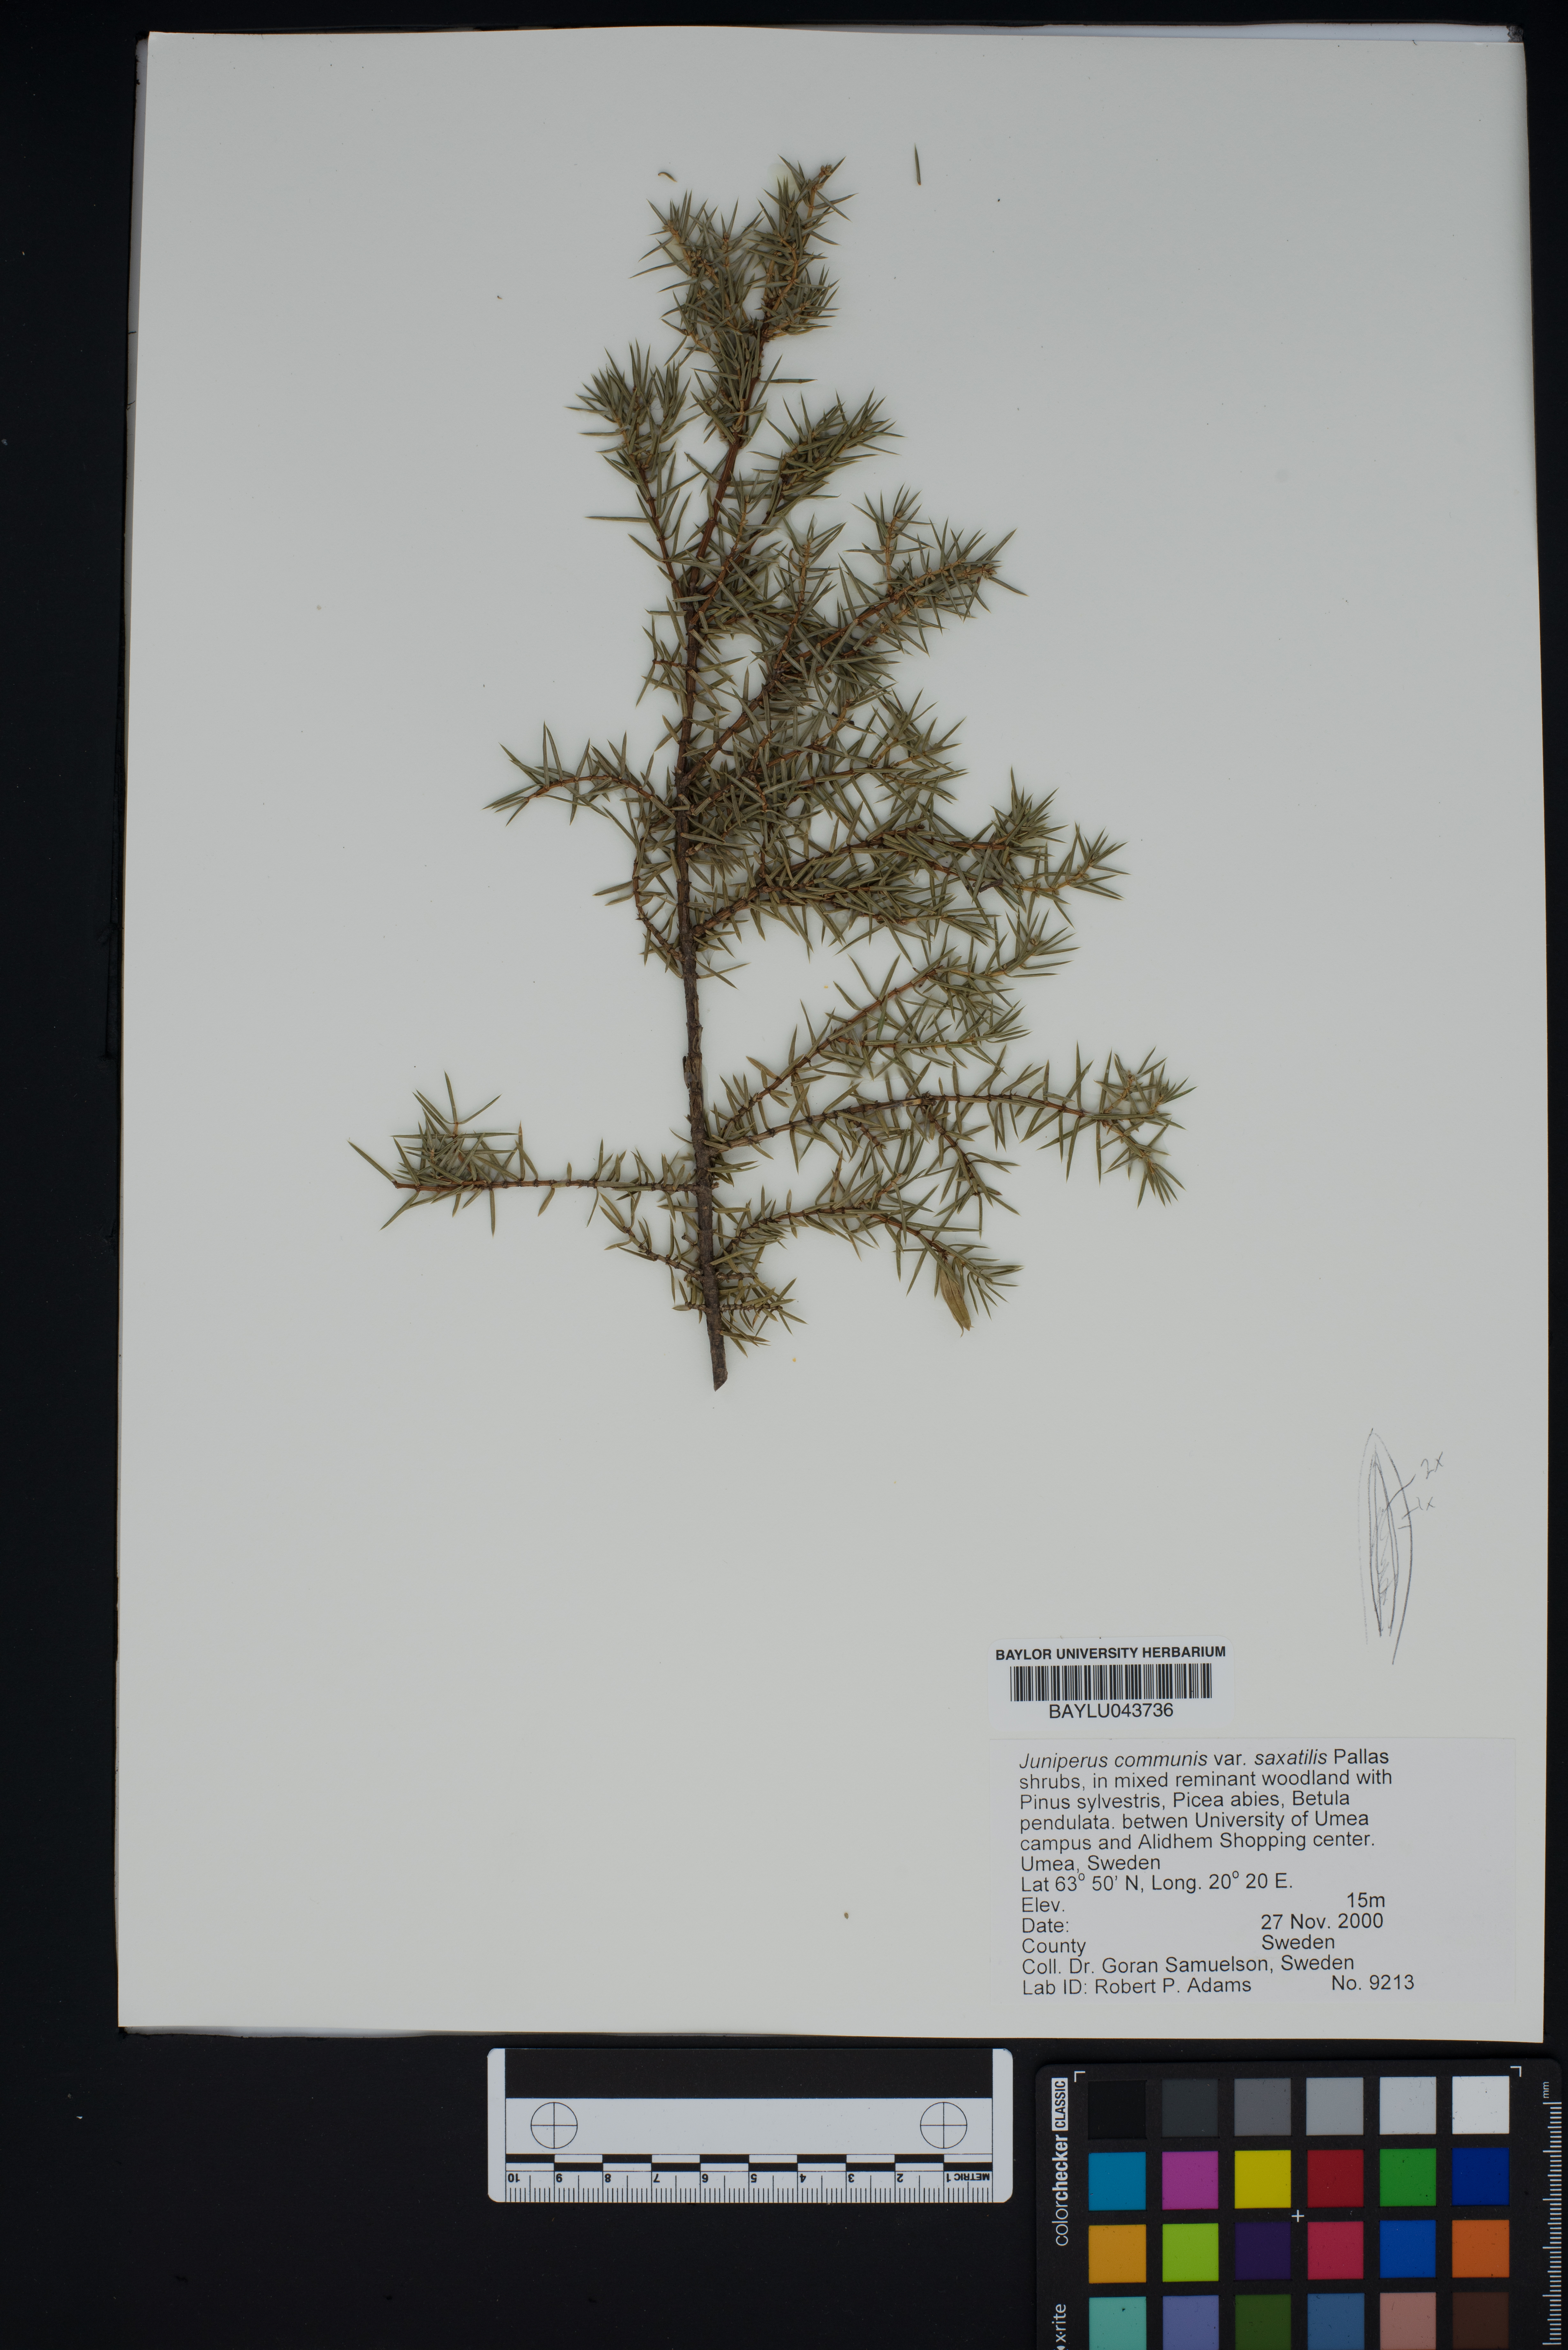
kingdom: Plantae
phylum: Tracheophyta
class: Pinopsida
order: Pinales
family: Cupressaceae
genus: Juniperus
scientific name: Juniperus communis
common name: Common juniper
